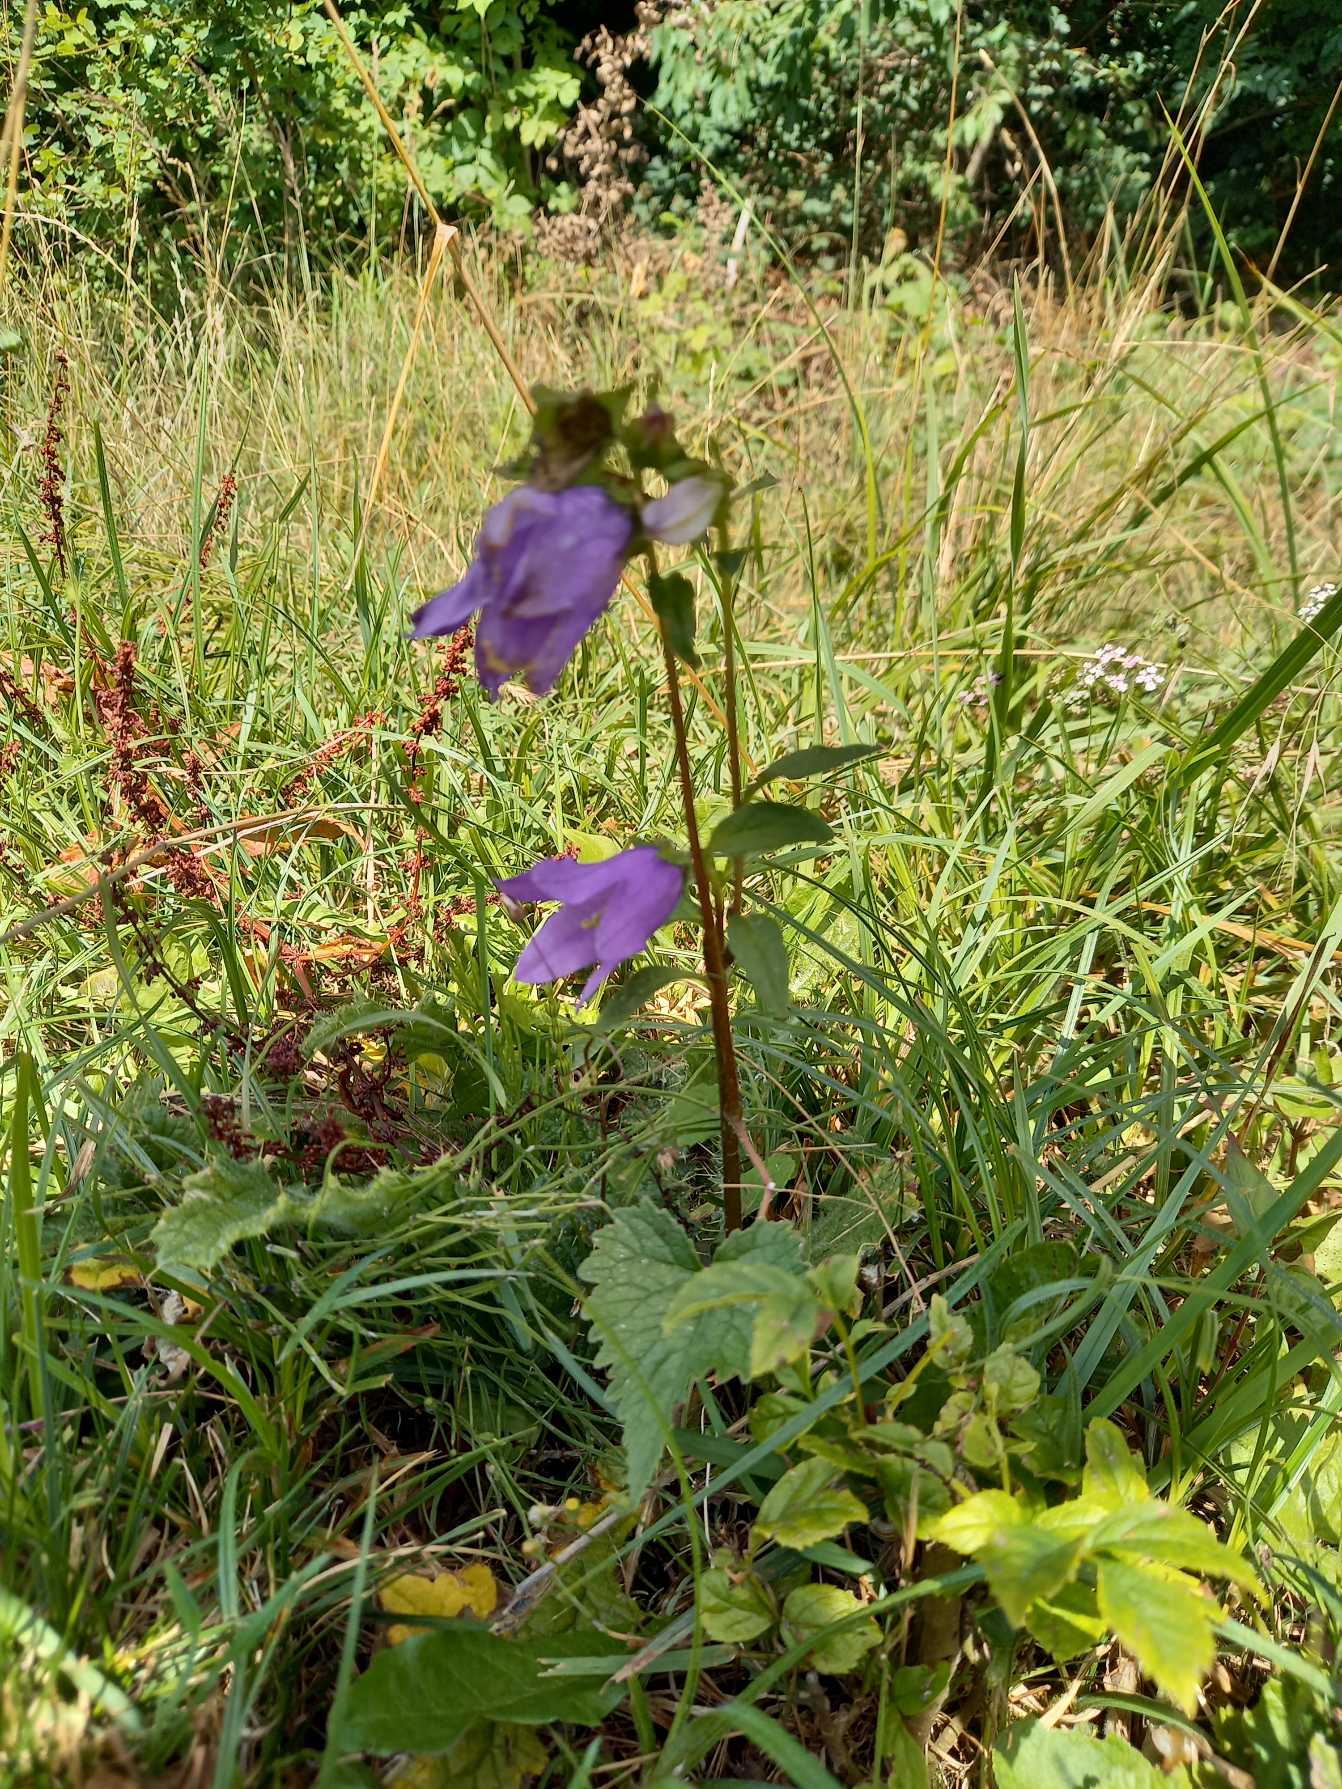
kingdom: Plantae
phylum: Tracheophyta
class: Magnoliopsida
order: Asterales
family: Campanulaceae
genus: Campanula
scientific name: Campanula trachelium
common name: Nælde-klokke
